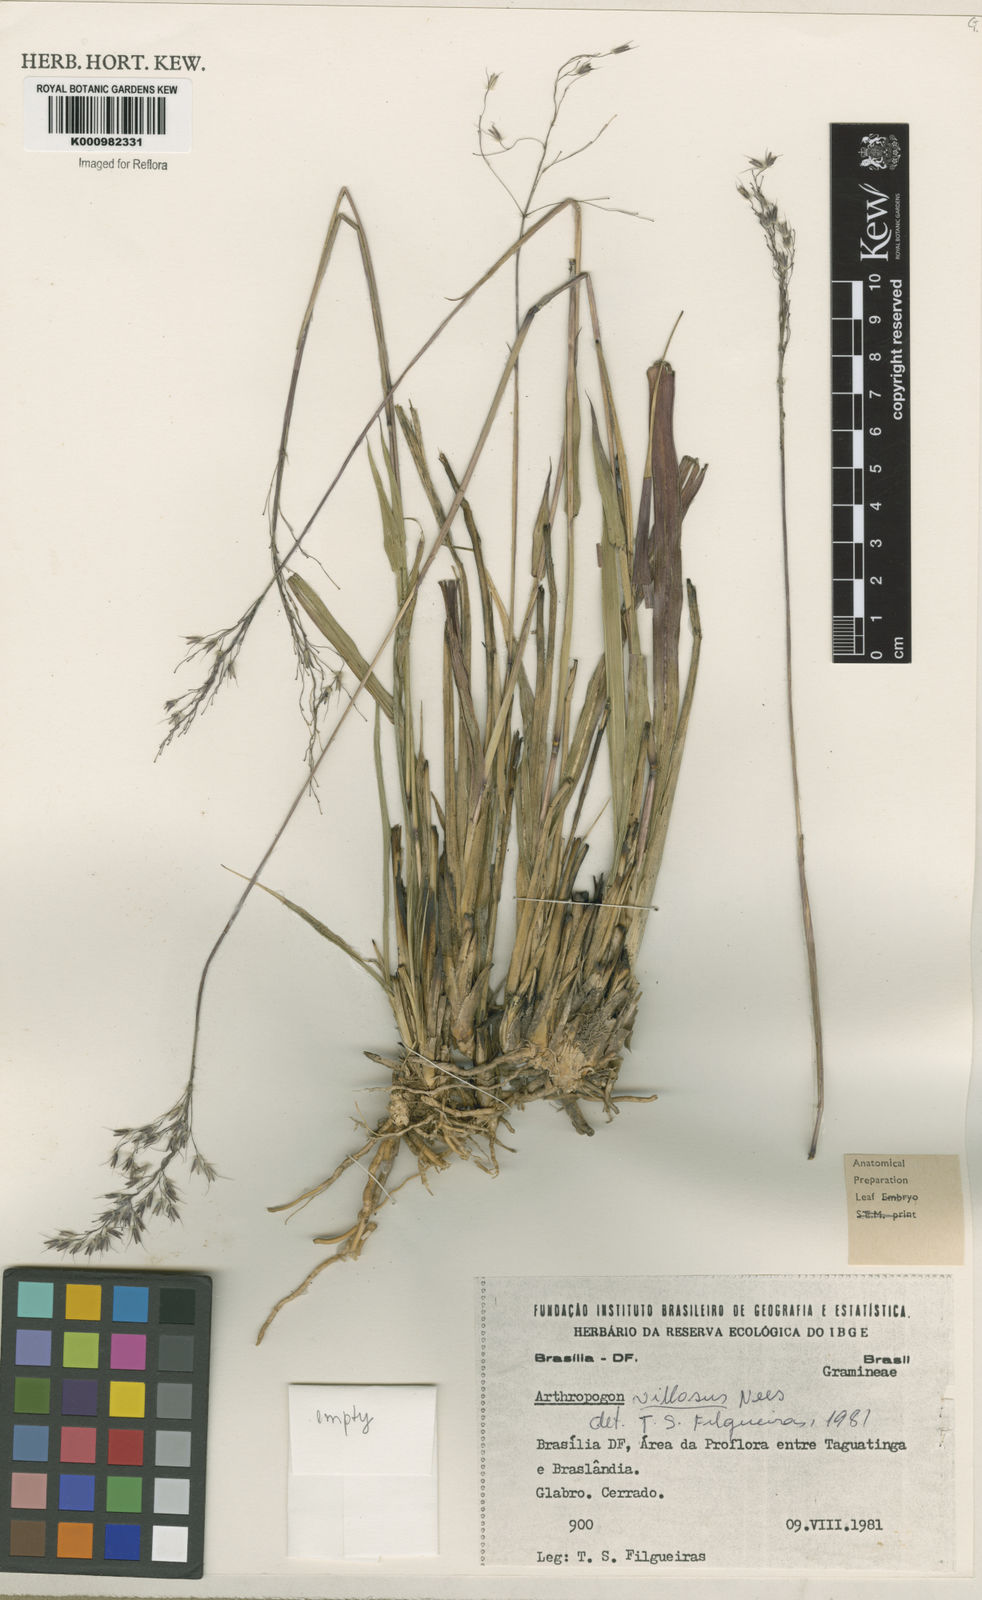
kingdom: Plantae
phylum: Tracheophyta
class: Liliopsida
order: Poales
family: Poaceae
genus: Arthropogon
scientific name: Arthropogon villosus
